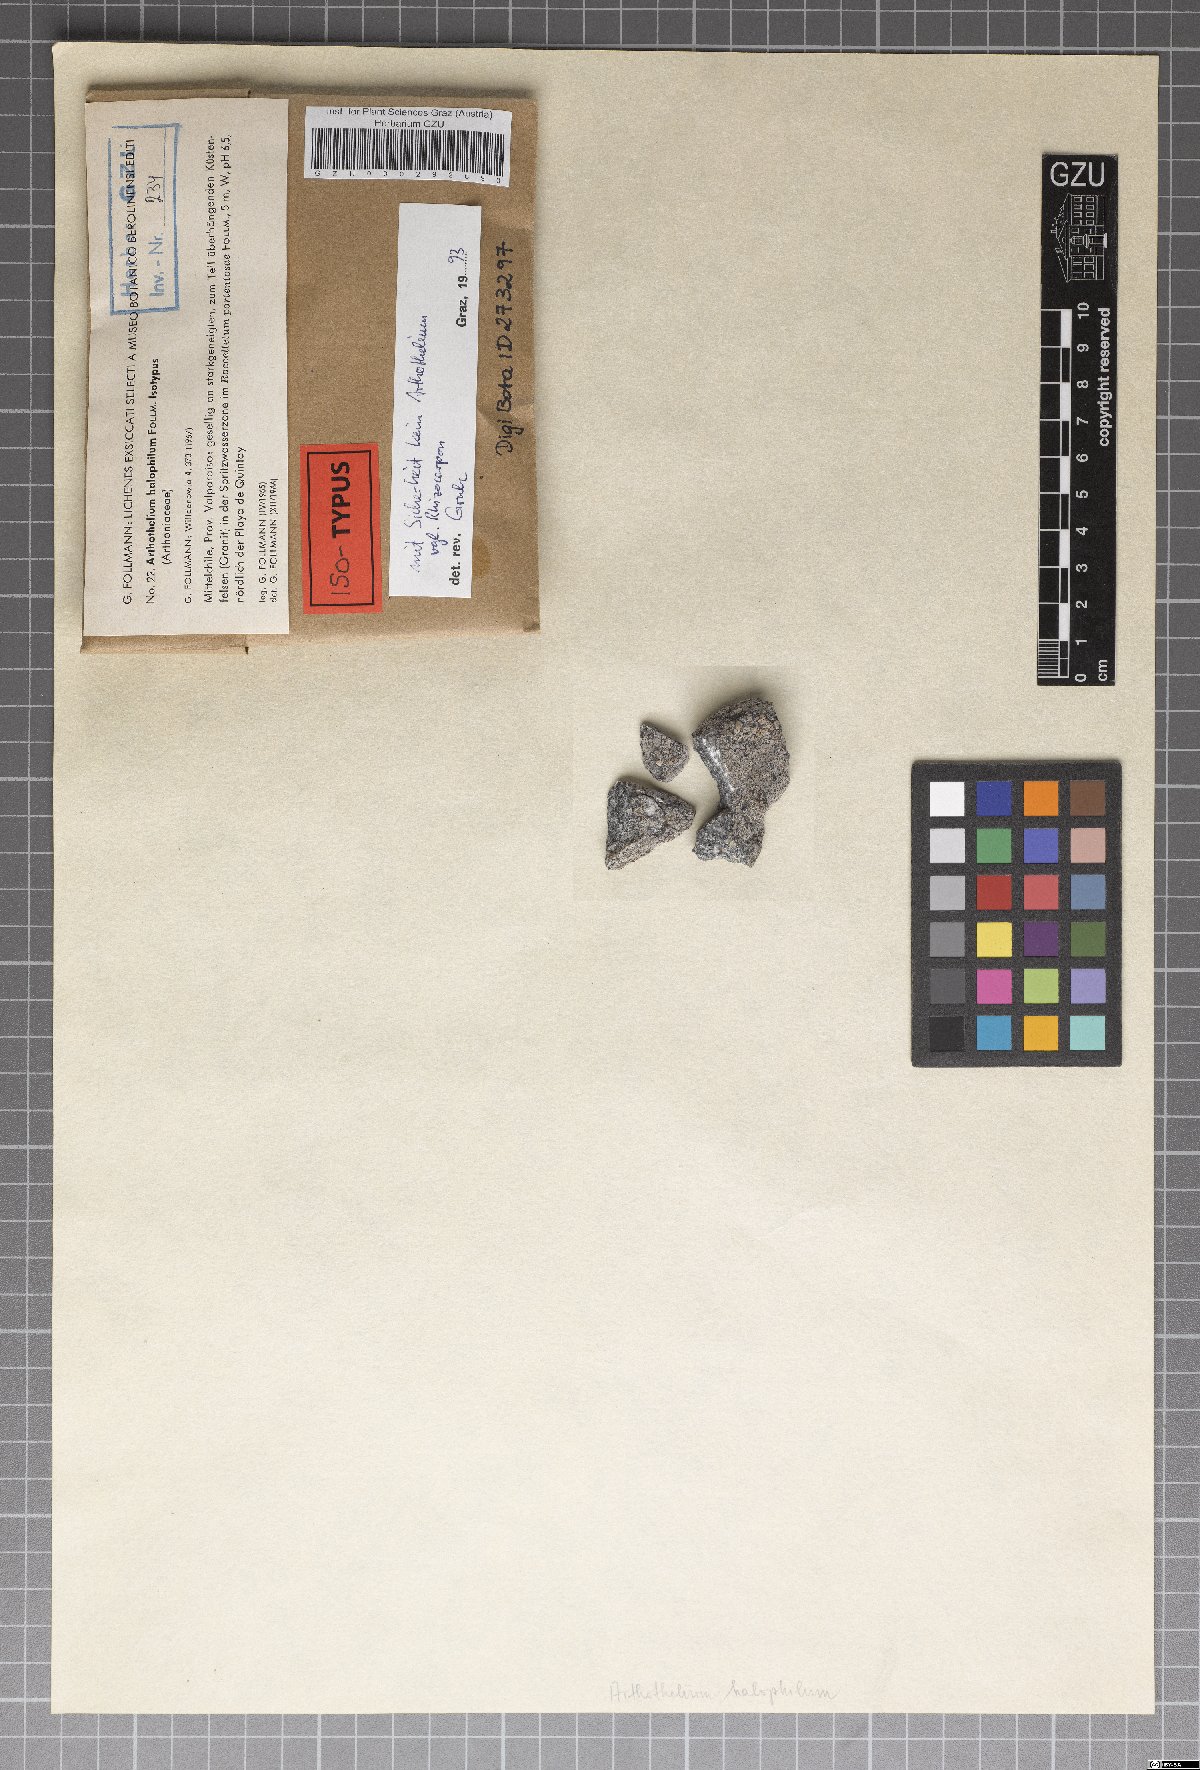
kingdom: Fungi
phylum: Ascomycota
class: Arthoniomycetes
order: Arthoniales
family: Arthoniaceae
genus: Arthothelium
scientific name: Arthothelium
